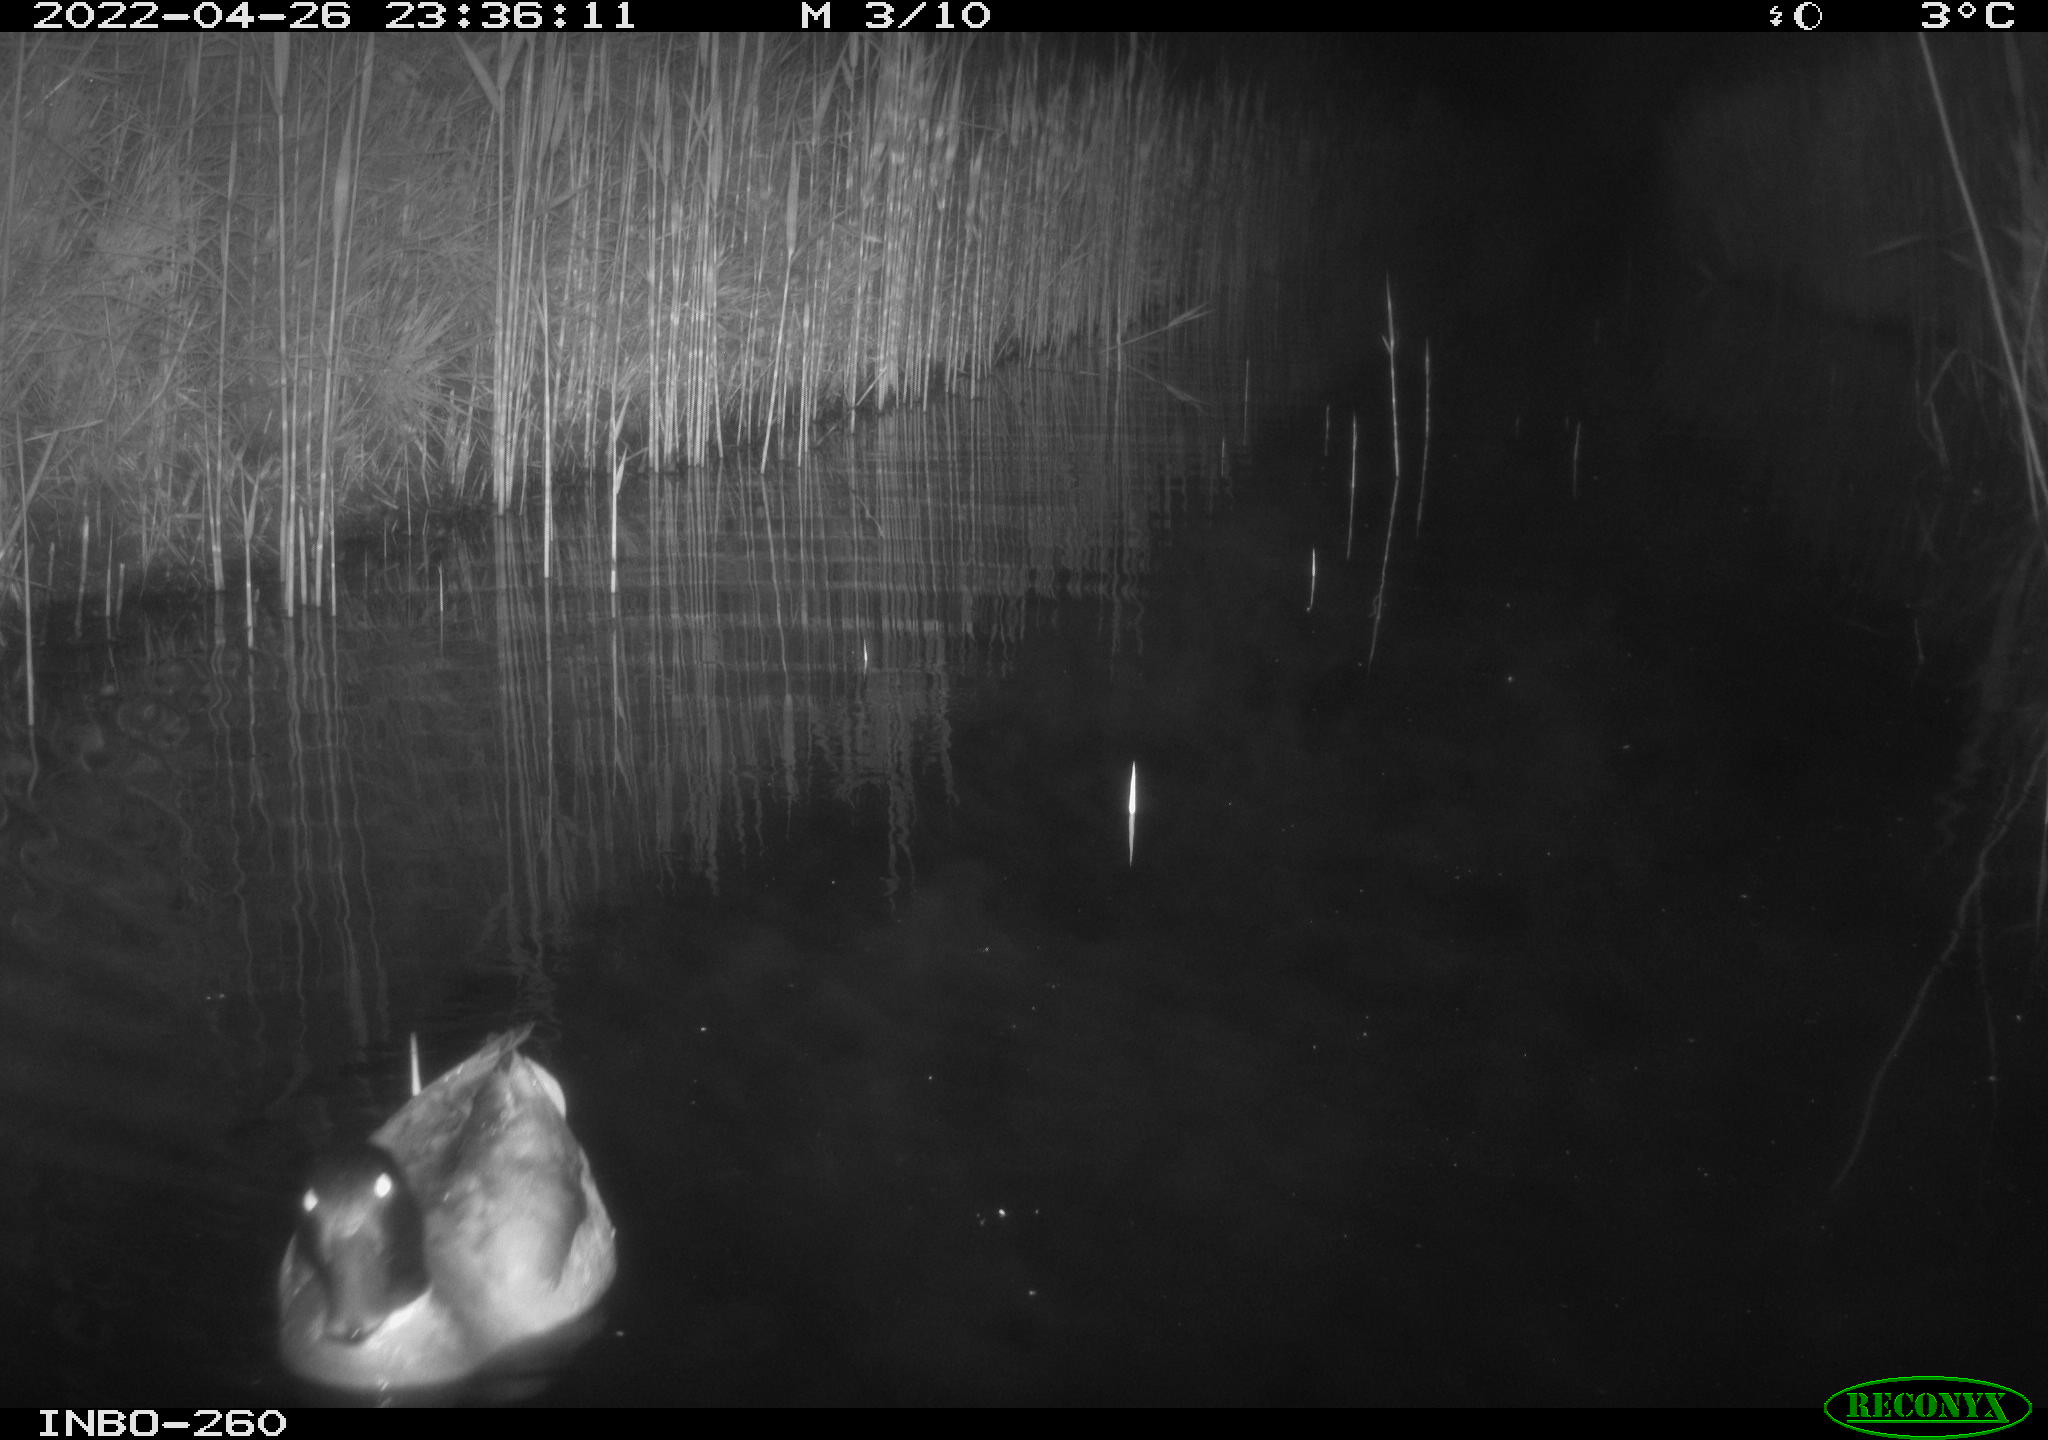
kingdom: Animalia
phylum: Chordata
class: Aves
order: Anseriformes
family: Anatidae
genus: Anas
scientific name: Anas platyrhynchos
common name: Mallard
